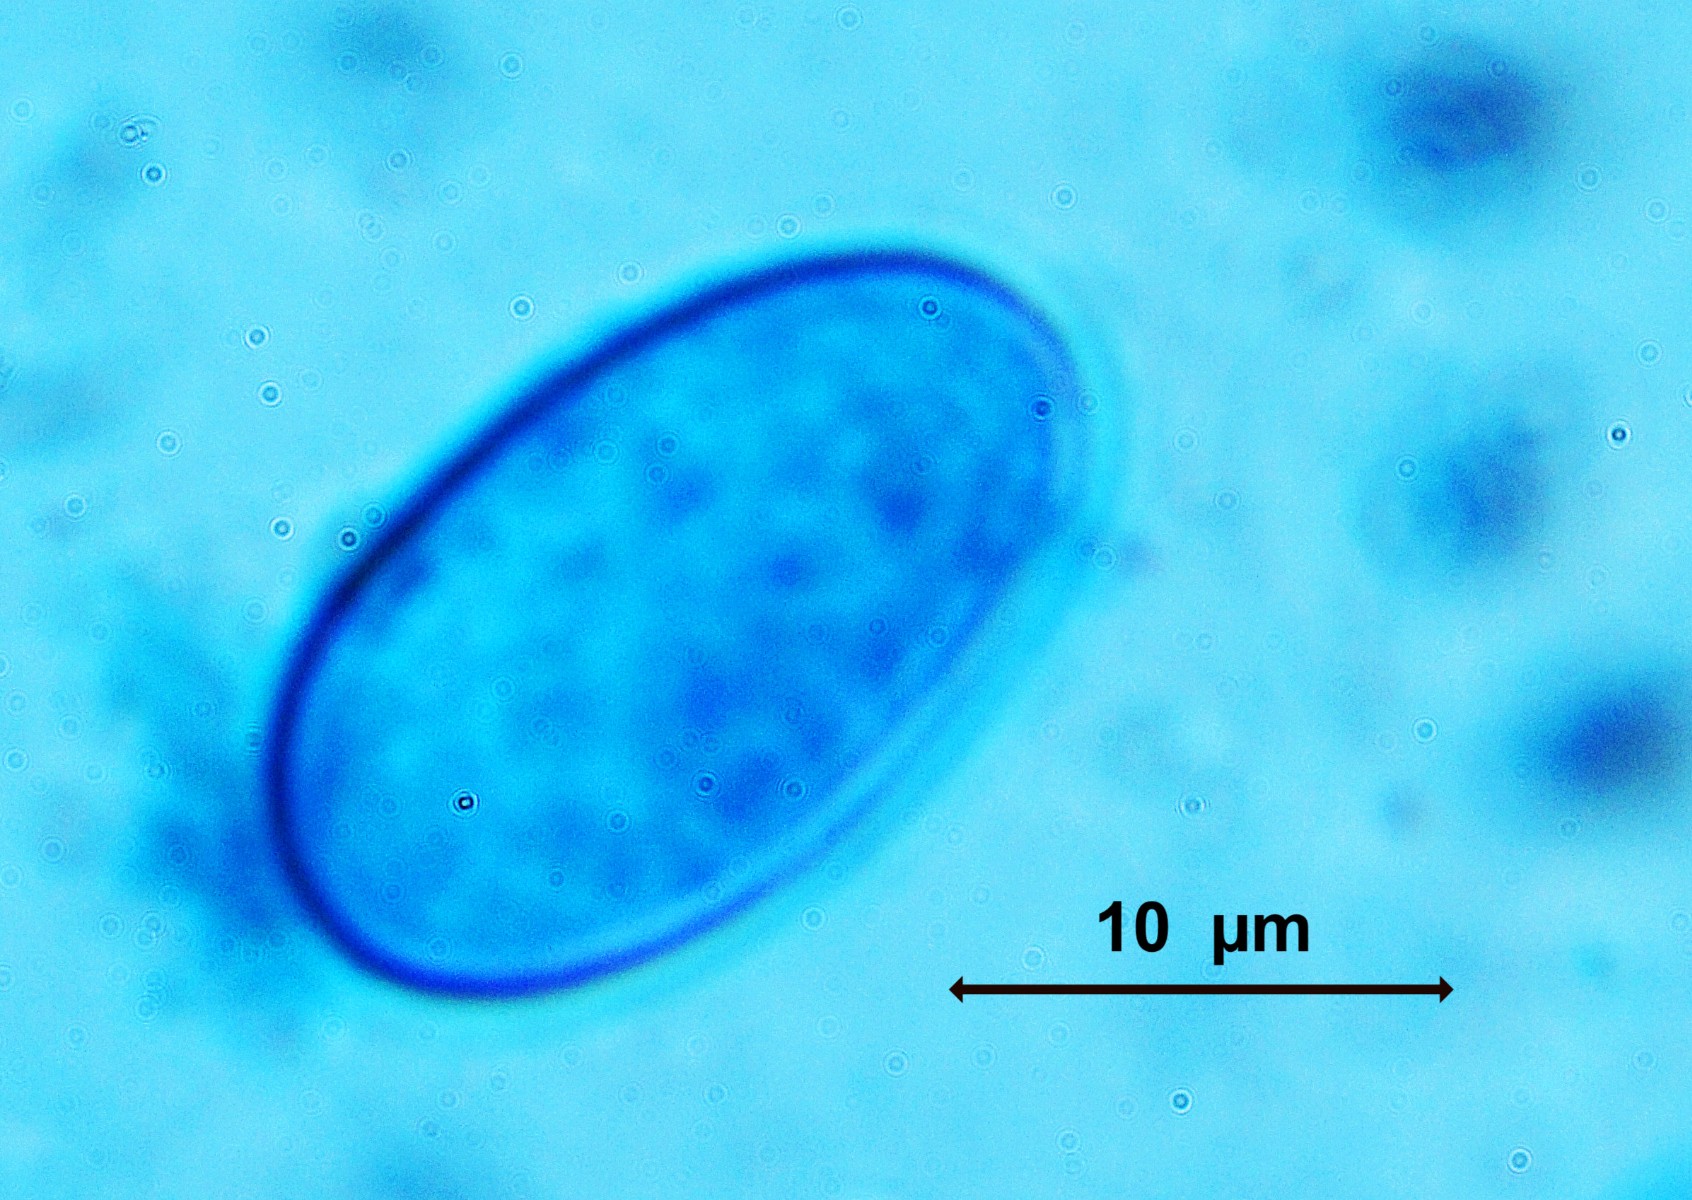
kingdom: Fungi
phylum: Ascomycota
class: Pezizomycetes
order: Pezizales
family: Pyronemataceae
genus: Scutellinia
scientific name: Scutellinia setosa
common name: pindsvine-skjoldbæger
